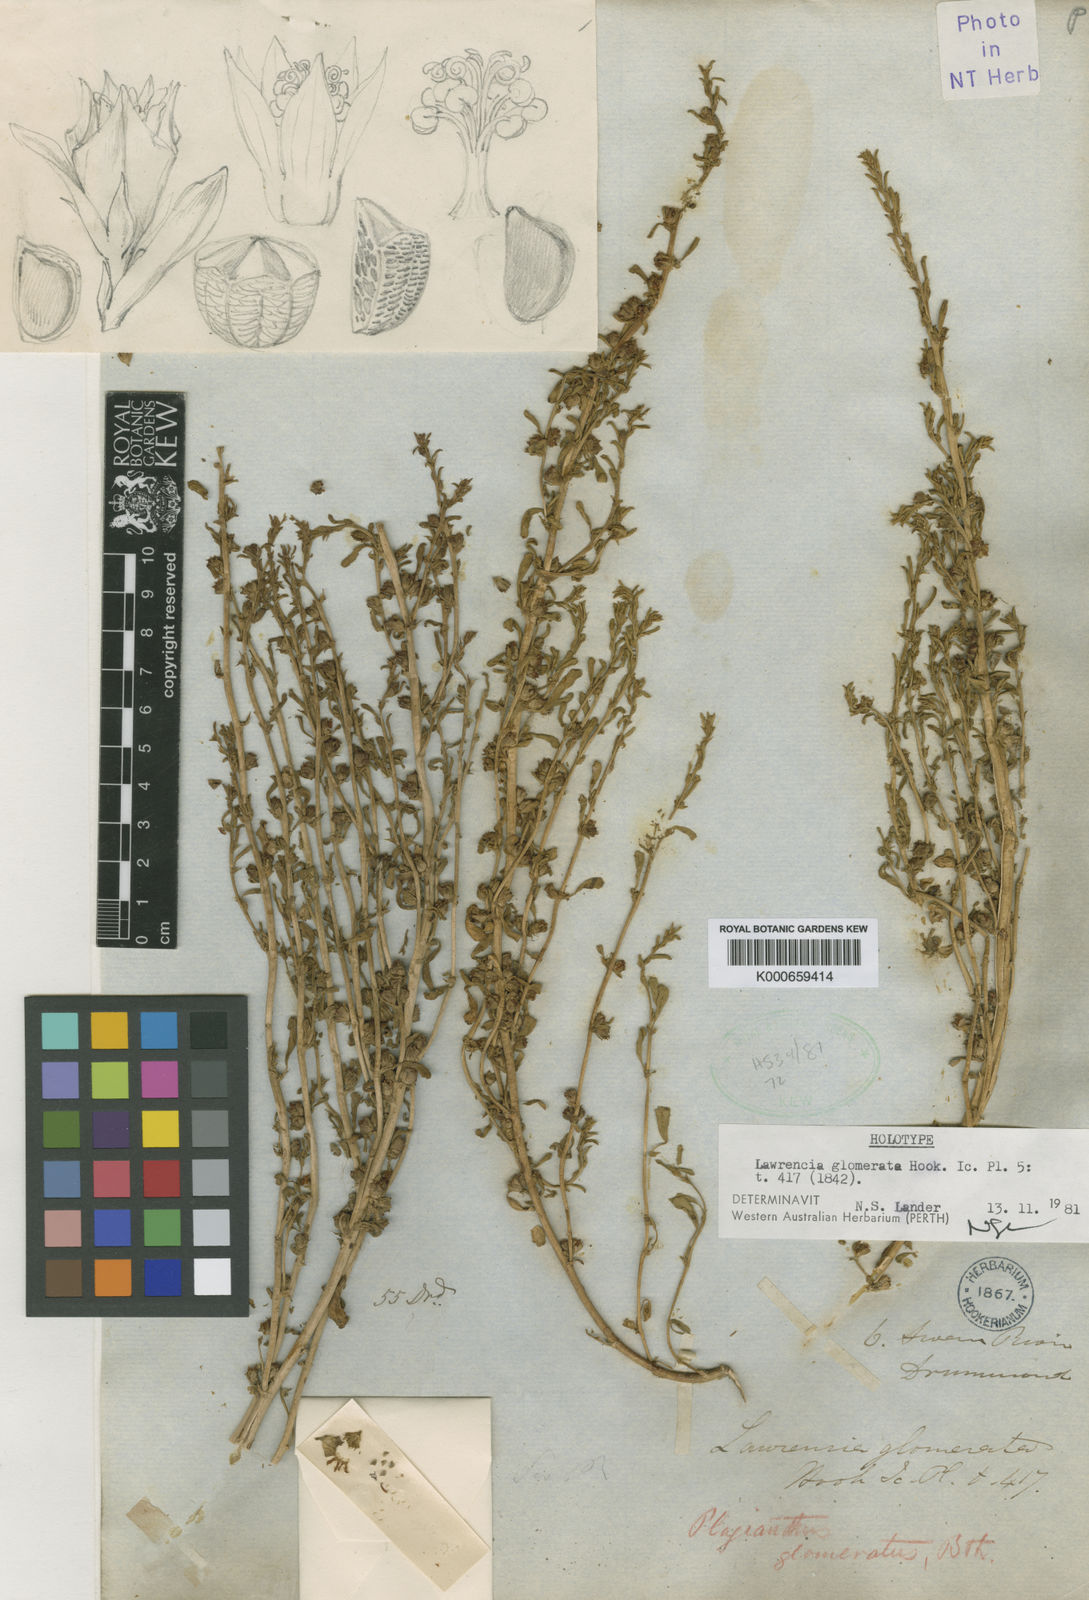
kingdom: Plantae
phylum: Tracheophyta
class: Magnoliopsida
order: Malvales
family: Malvaceae
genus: Lawrencia
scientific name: Lawrencia glomerata
